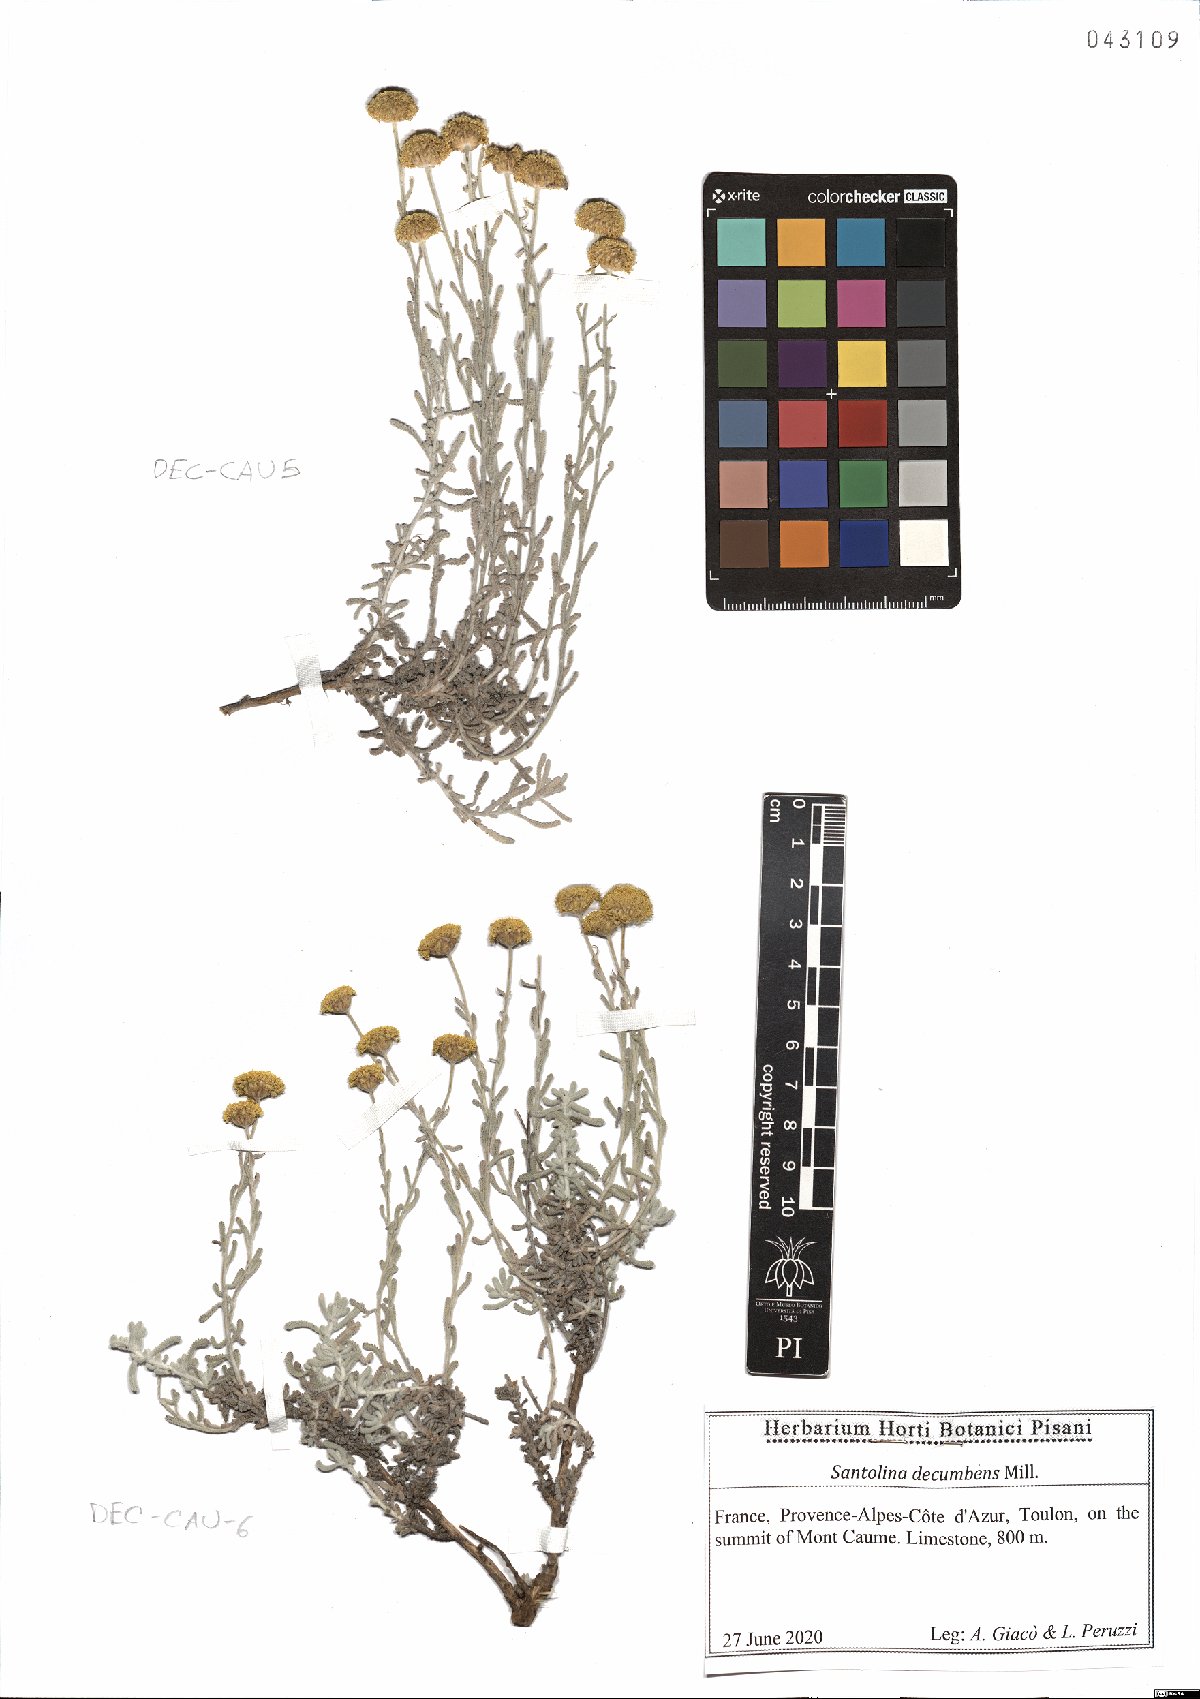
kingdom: Plantae
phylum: Tracheophyta
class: Magnoliopsida
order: Asterales
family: Asteraceae
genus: Santolina
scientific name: Santolina decumbens
